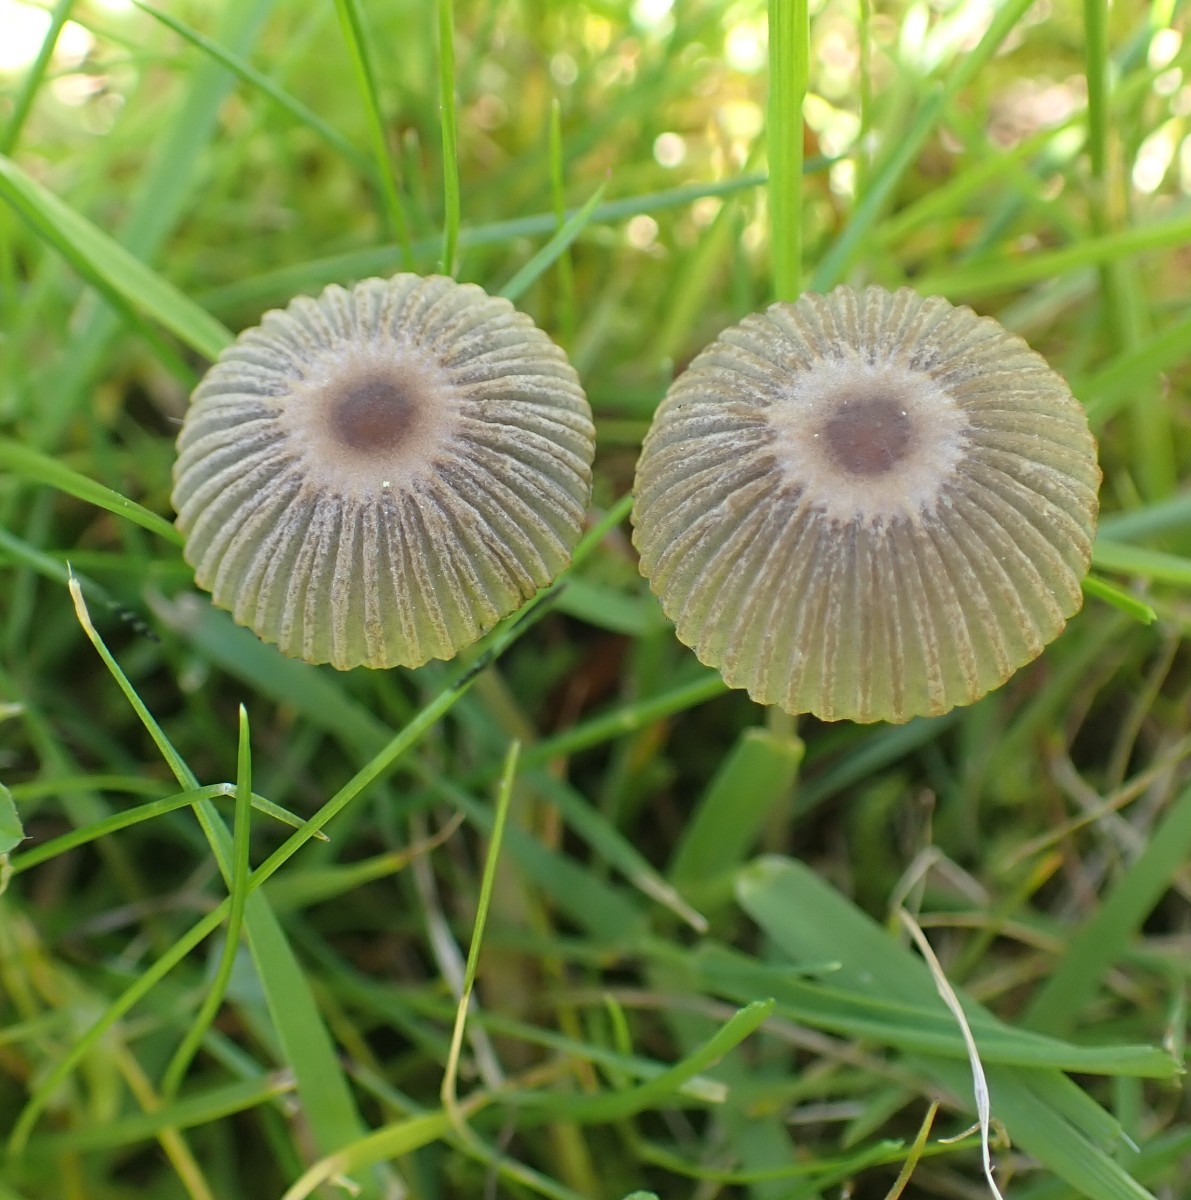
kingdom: Fungi
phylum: Basidiomycota
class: Agaricomycetes
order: Agaricales
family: Psathyrellaceae
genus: Parasola
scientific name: Parasola
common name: hjulhat
